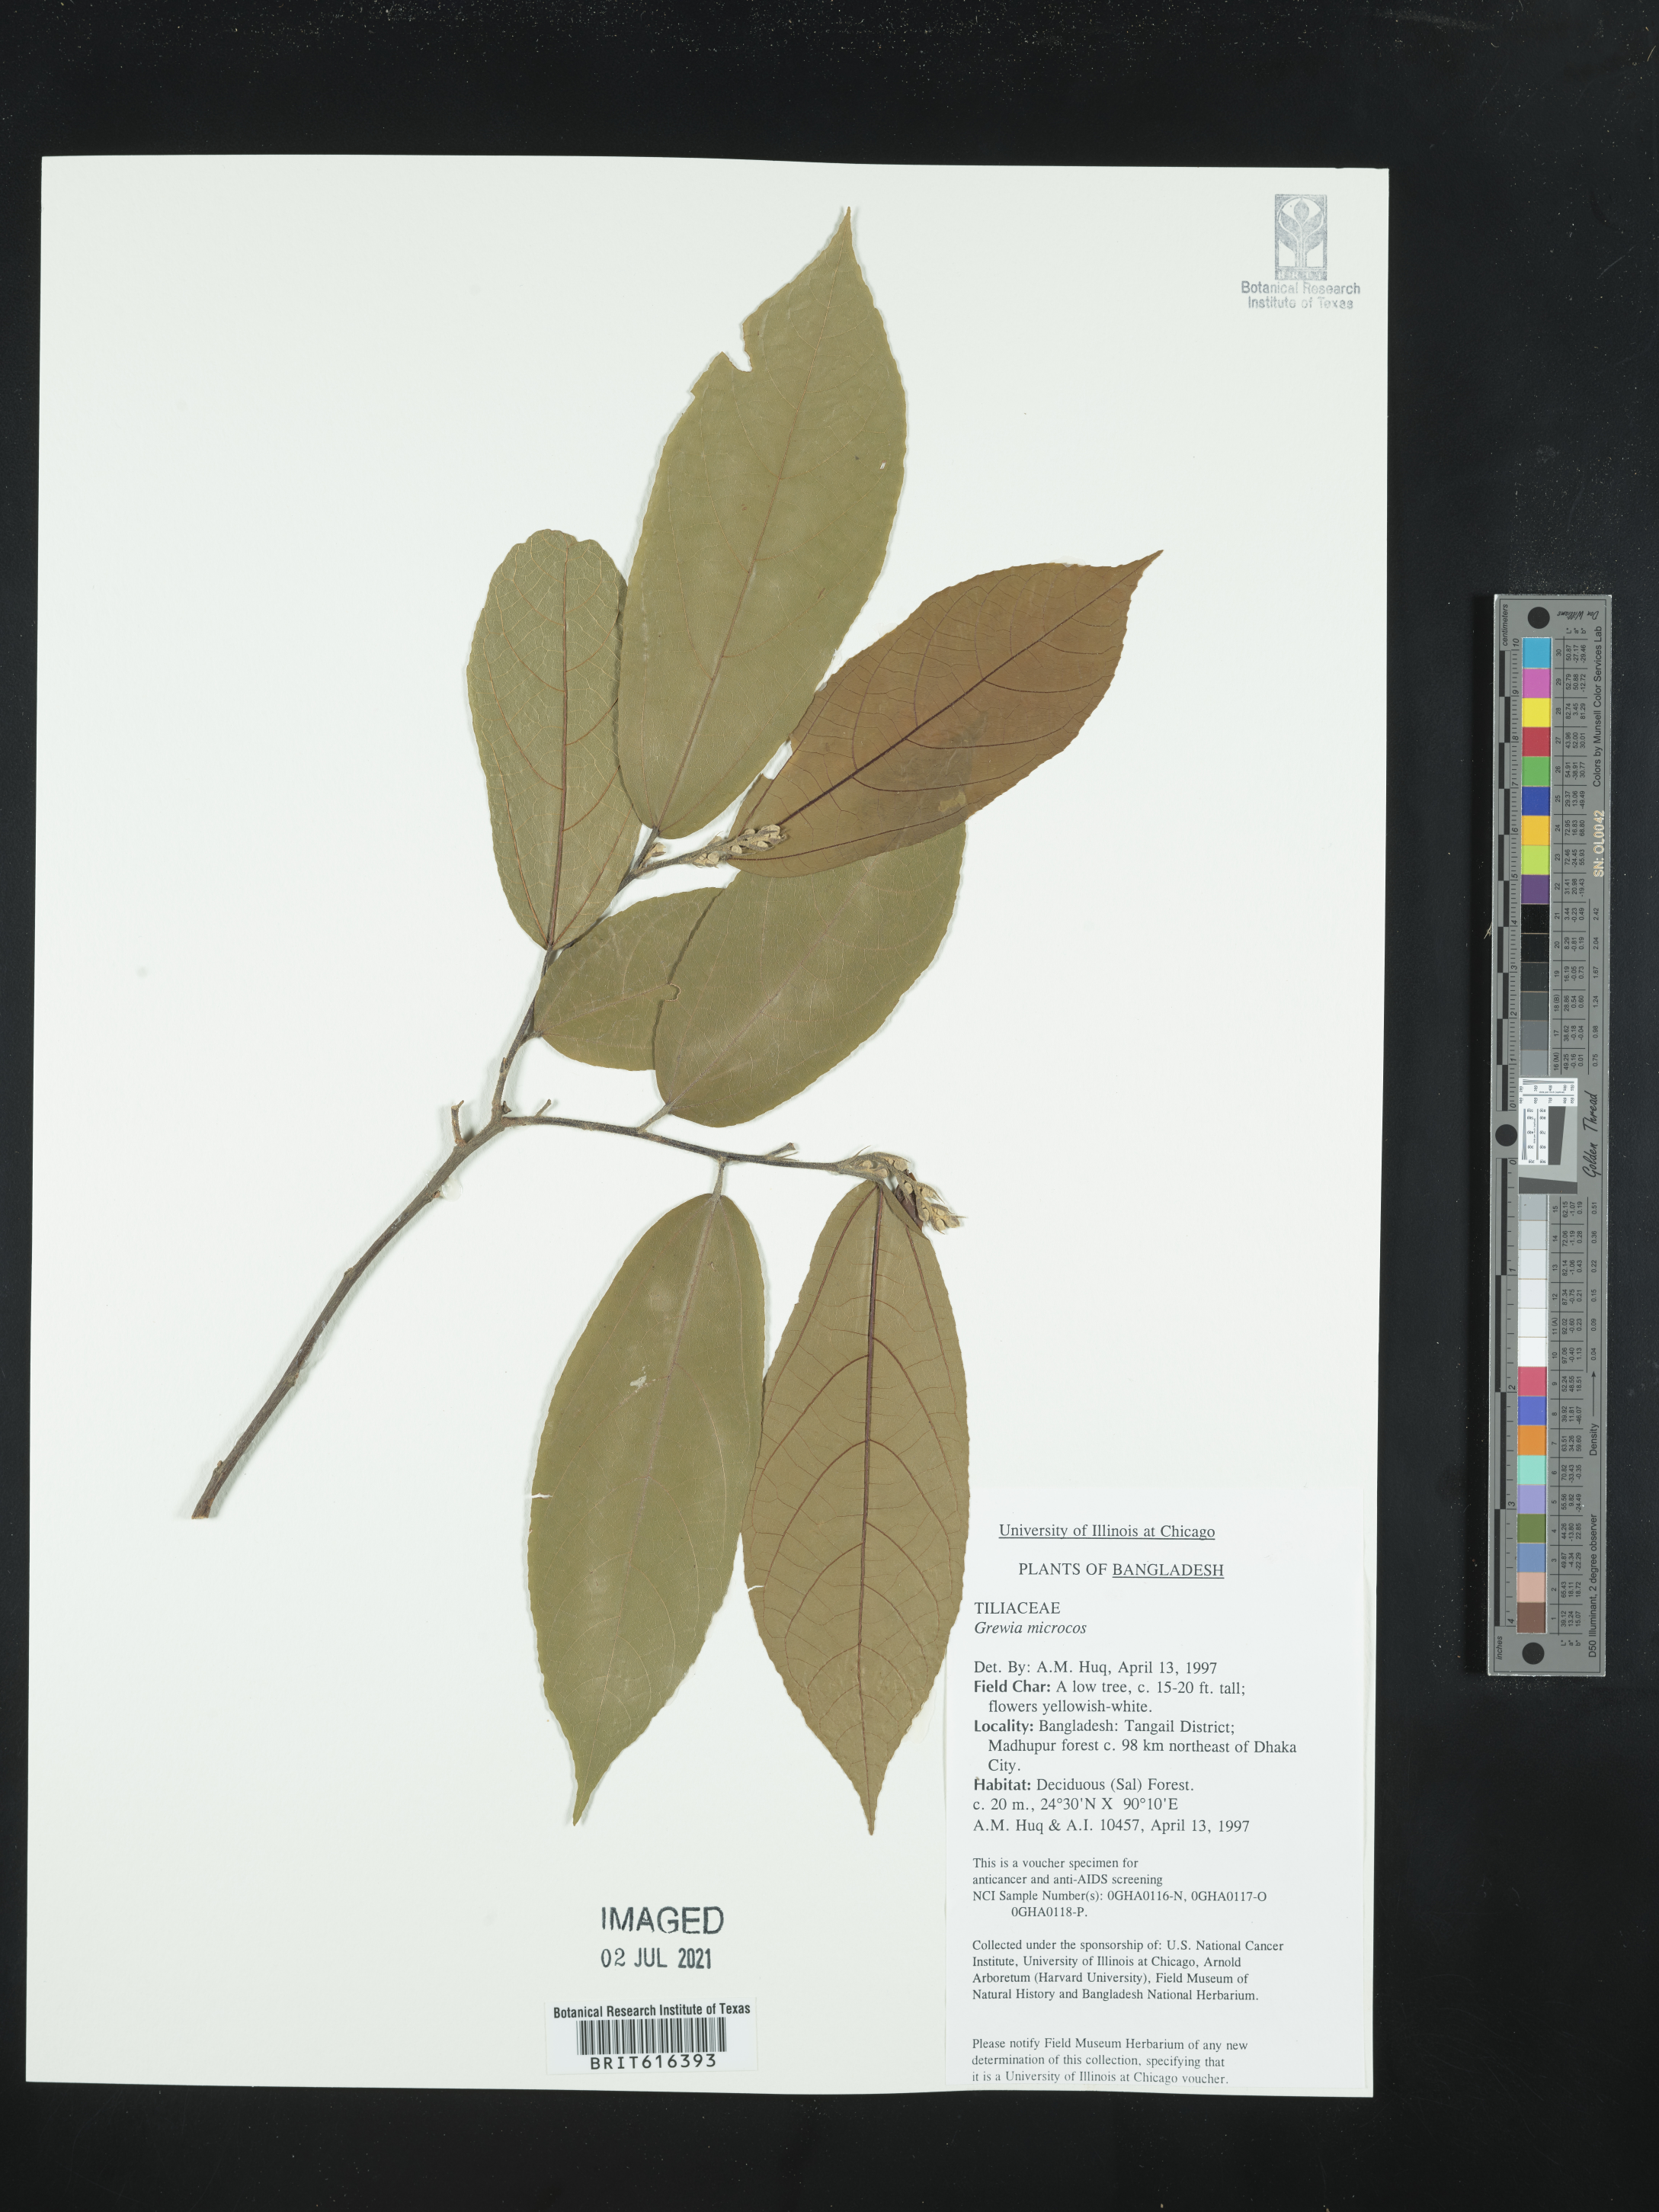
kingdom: Plantae
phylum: Tracheophyta
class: Magnoliopsida
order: Malvales
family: Malvaceae
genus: Microcos
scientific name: Microcos paniculata
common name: Microcos
